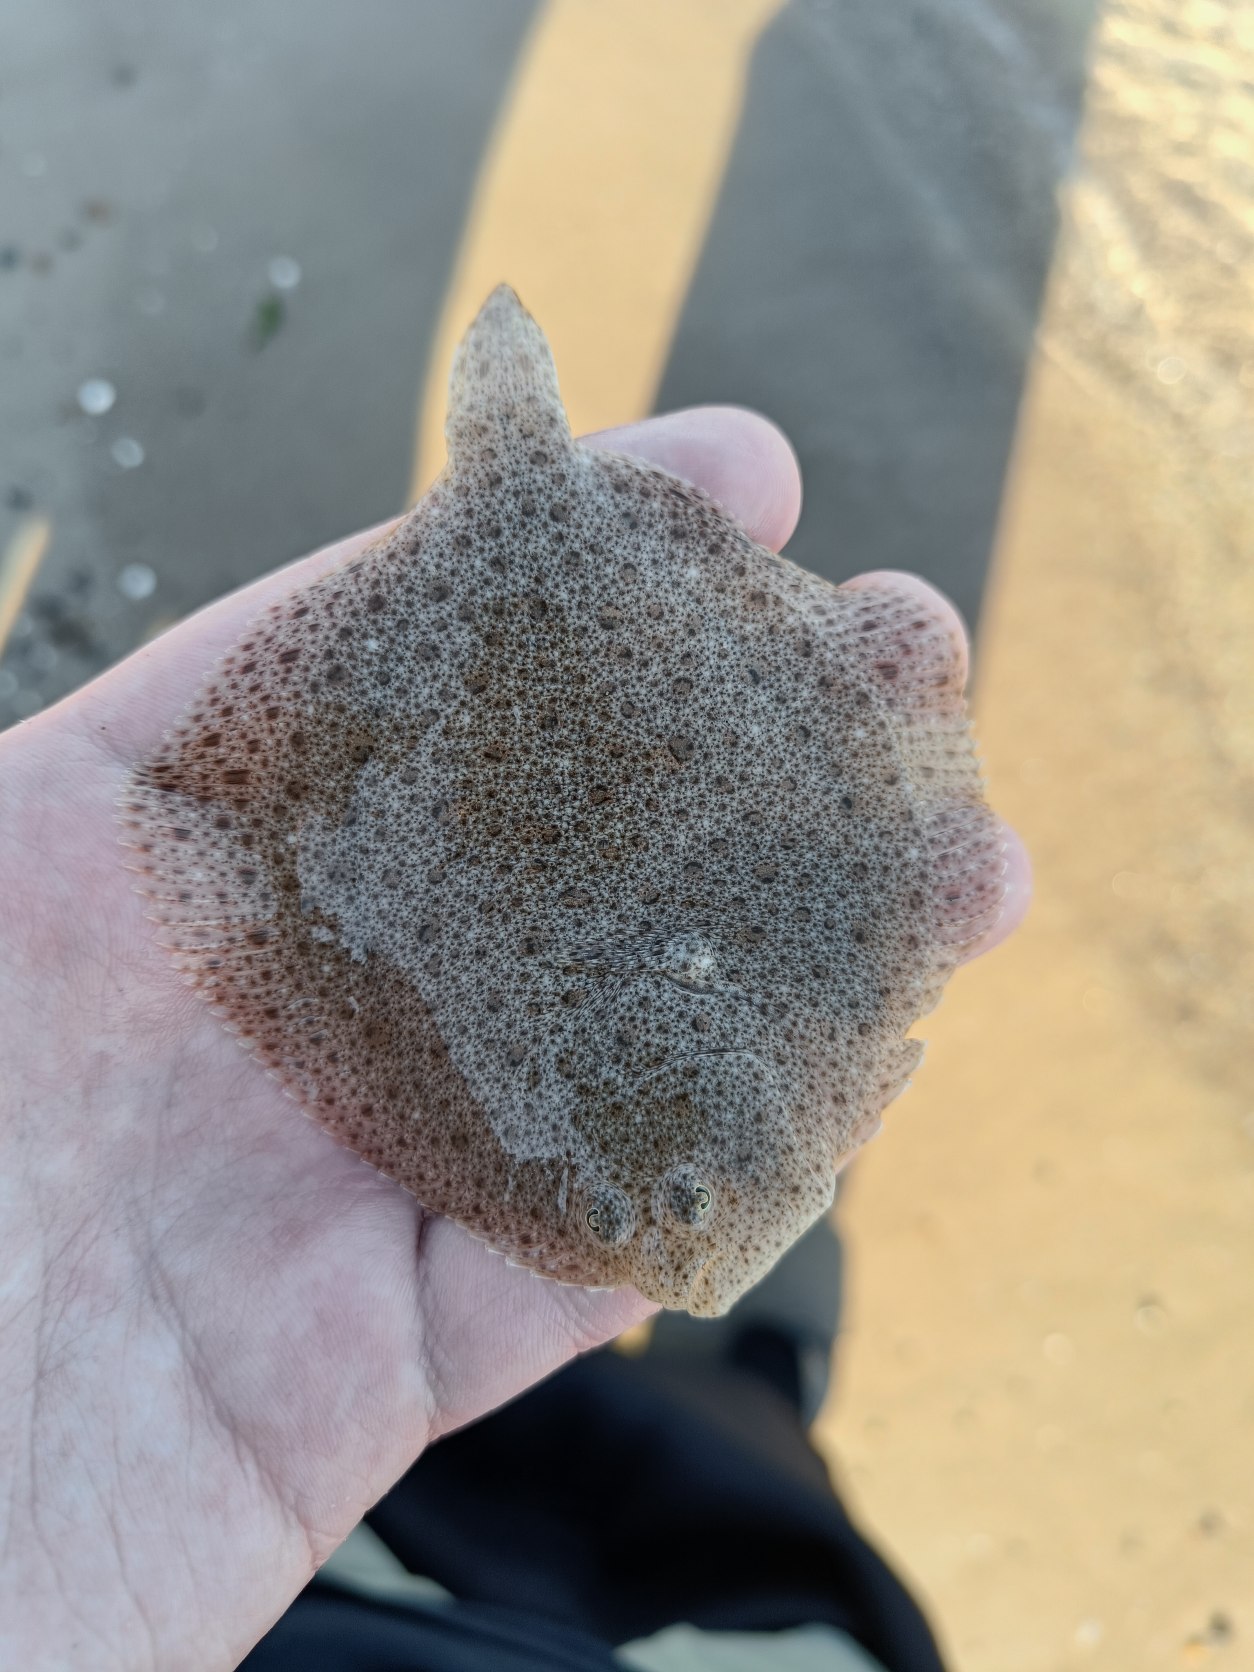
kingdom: Animalia
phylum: Chordata
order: Pleuronectiformes
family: Scophthalmidae
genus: Scophthalmus
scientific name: Scophthalmus maximus
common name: Pighvarre
